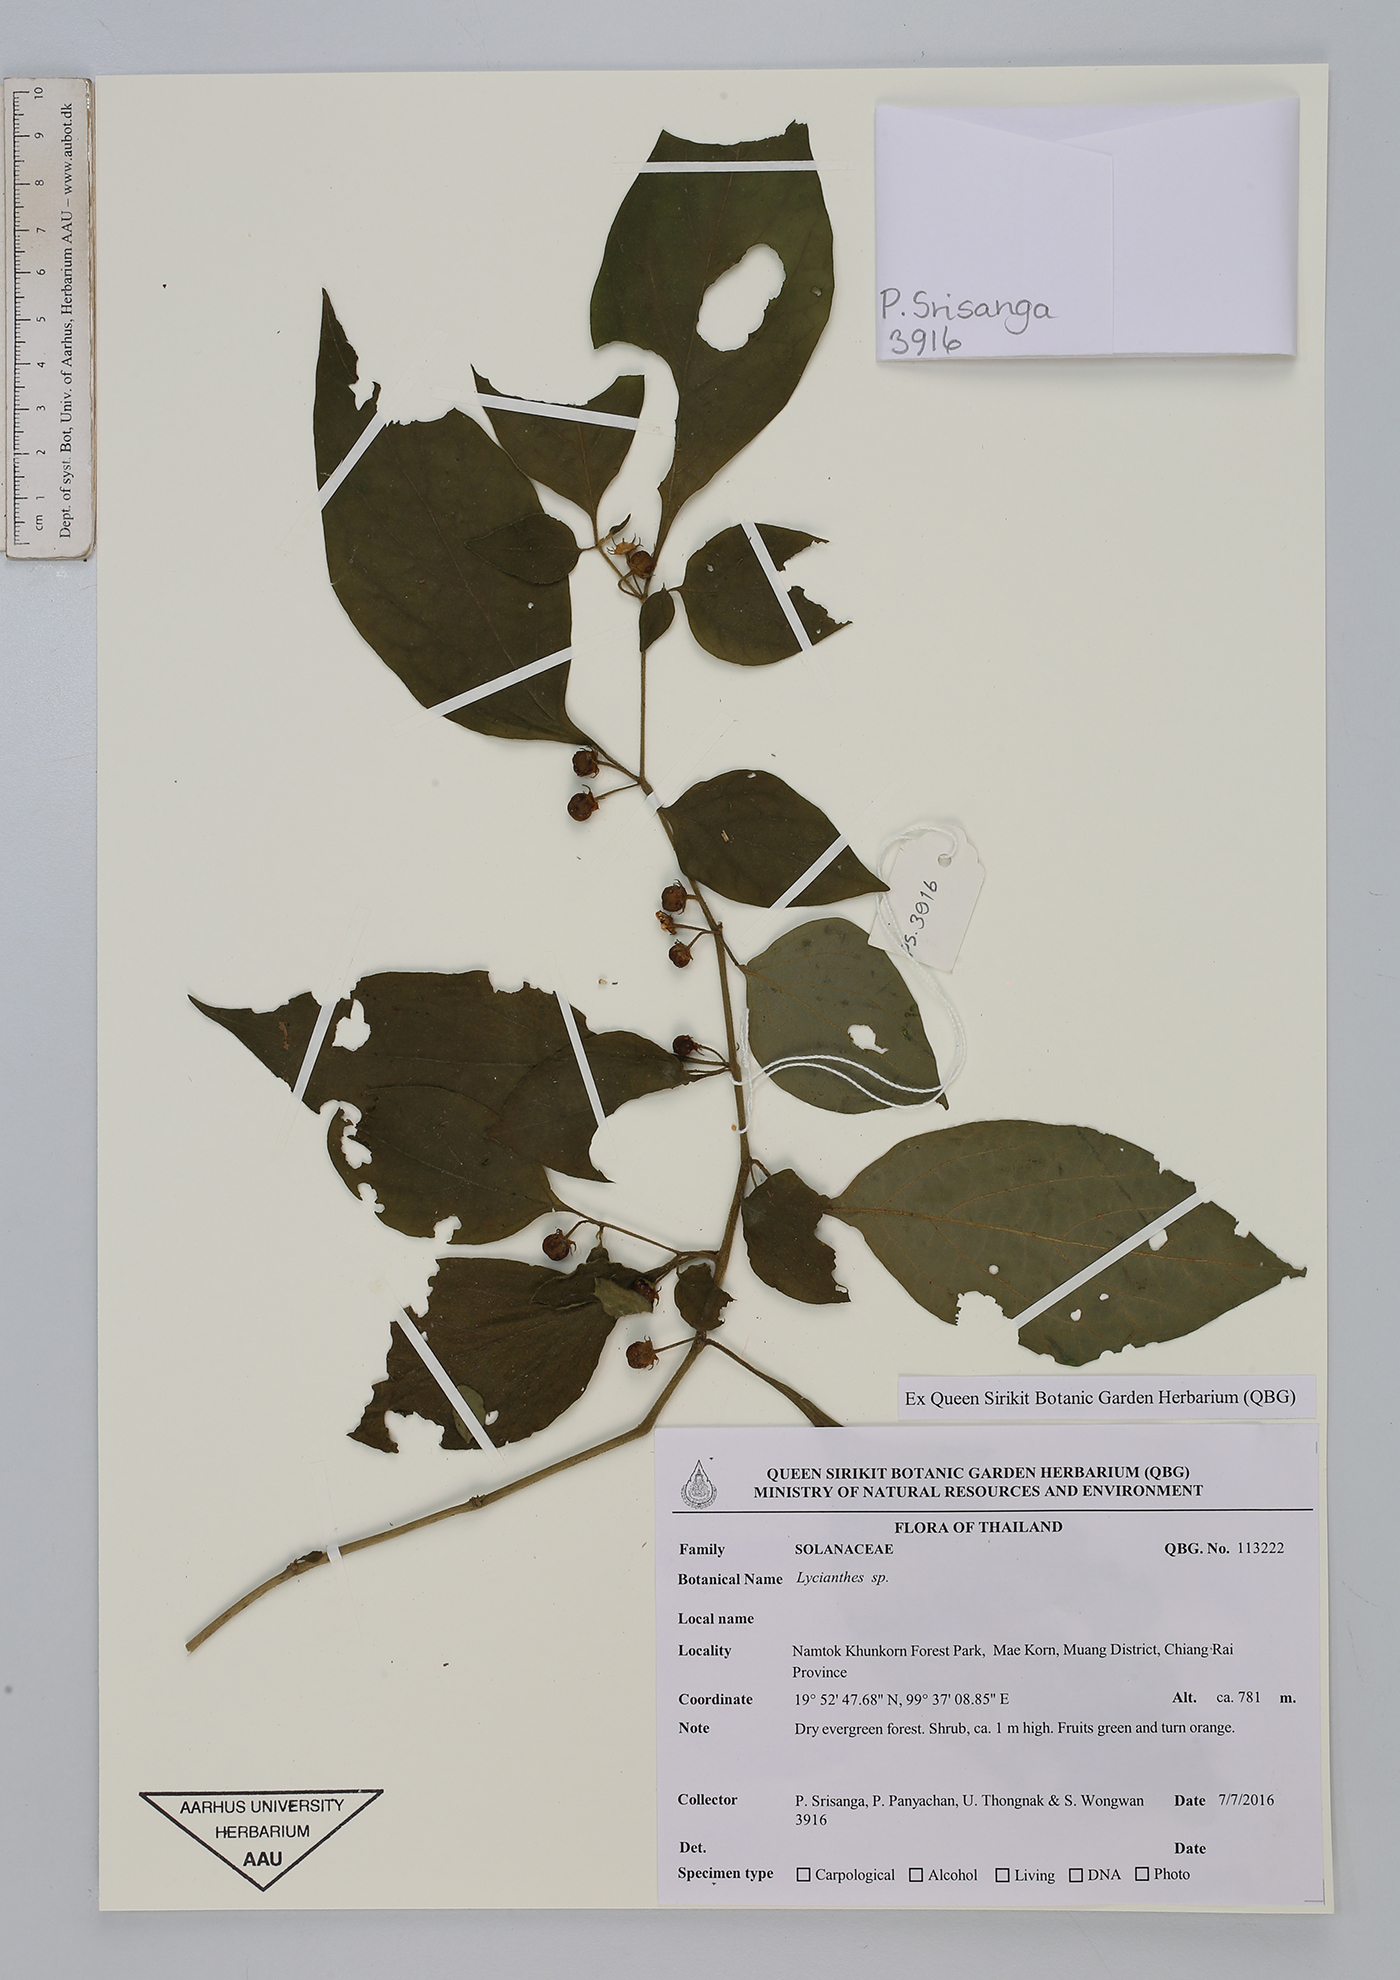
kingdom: Plantae
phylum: Tracheophyta
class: Magnoliopsida
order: Solanales
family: Solanaceae
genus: Lycianthes
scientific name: Lycianthes
